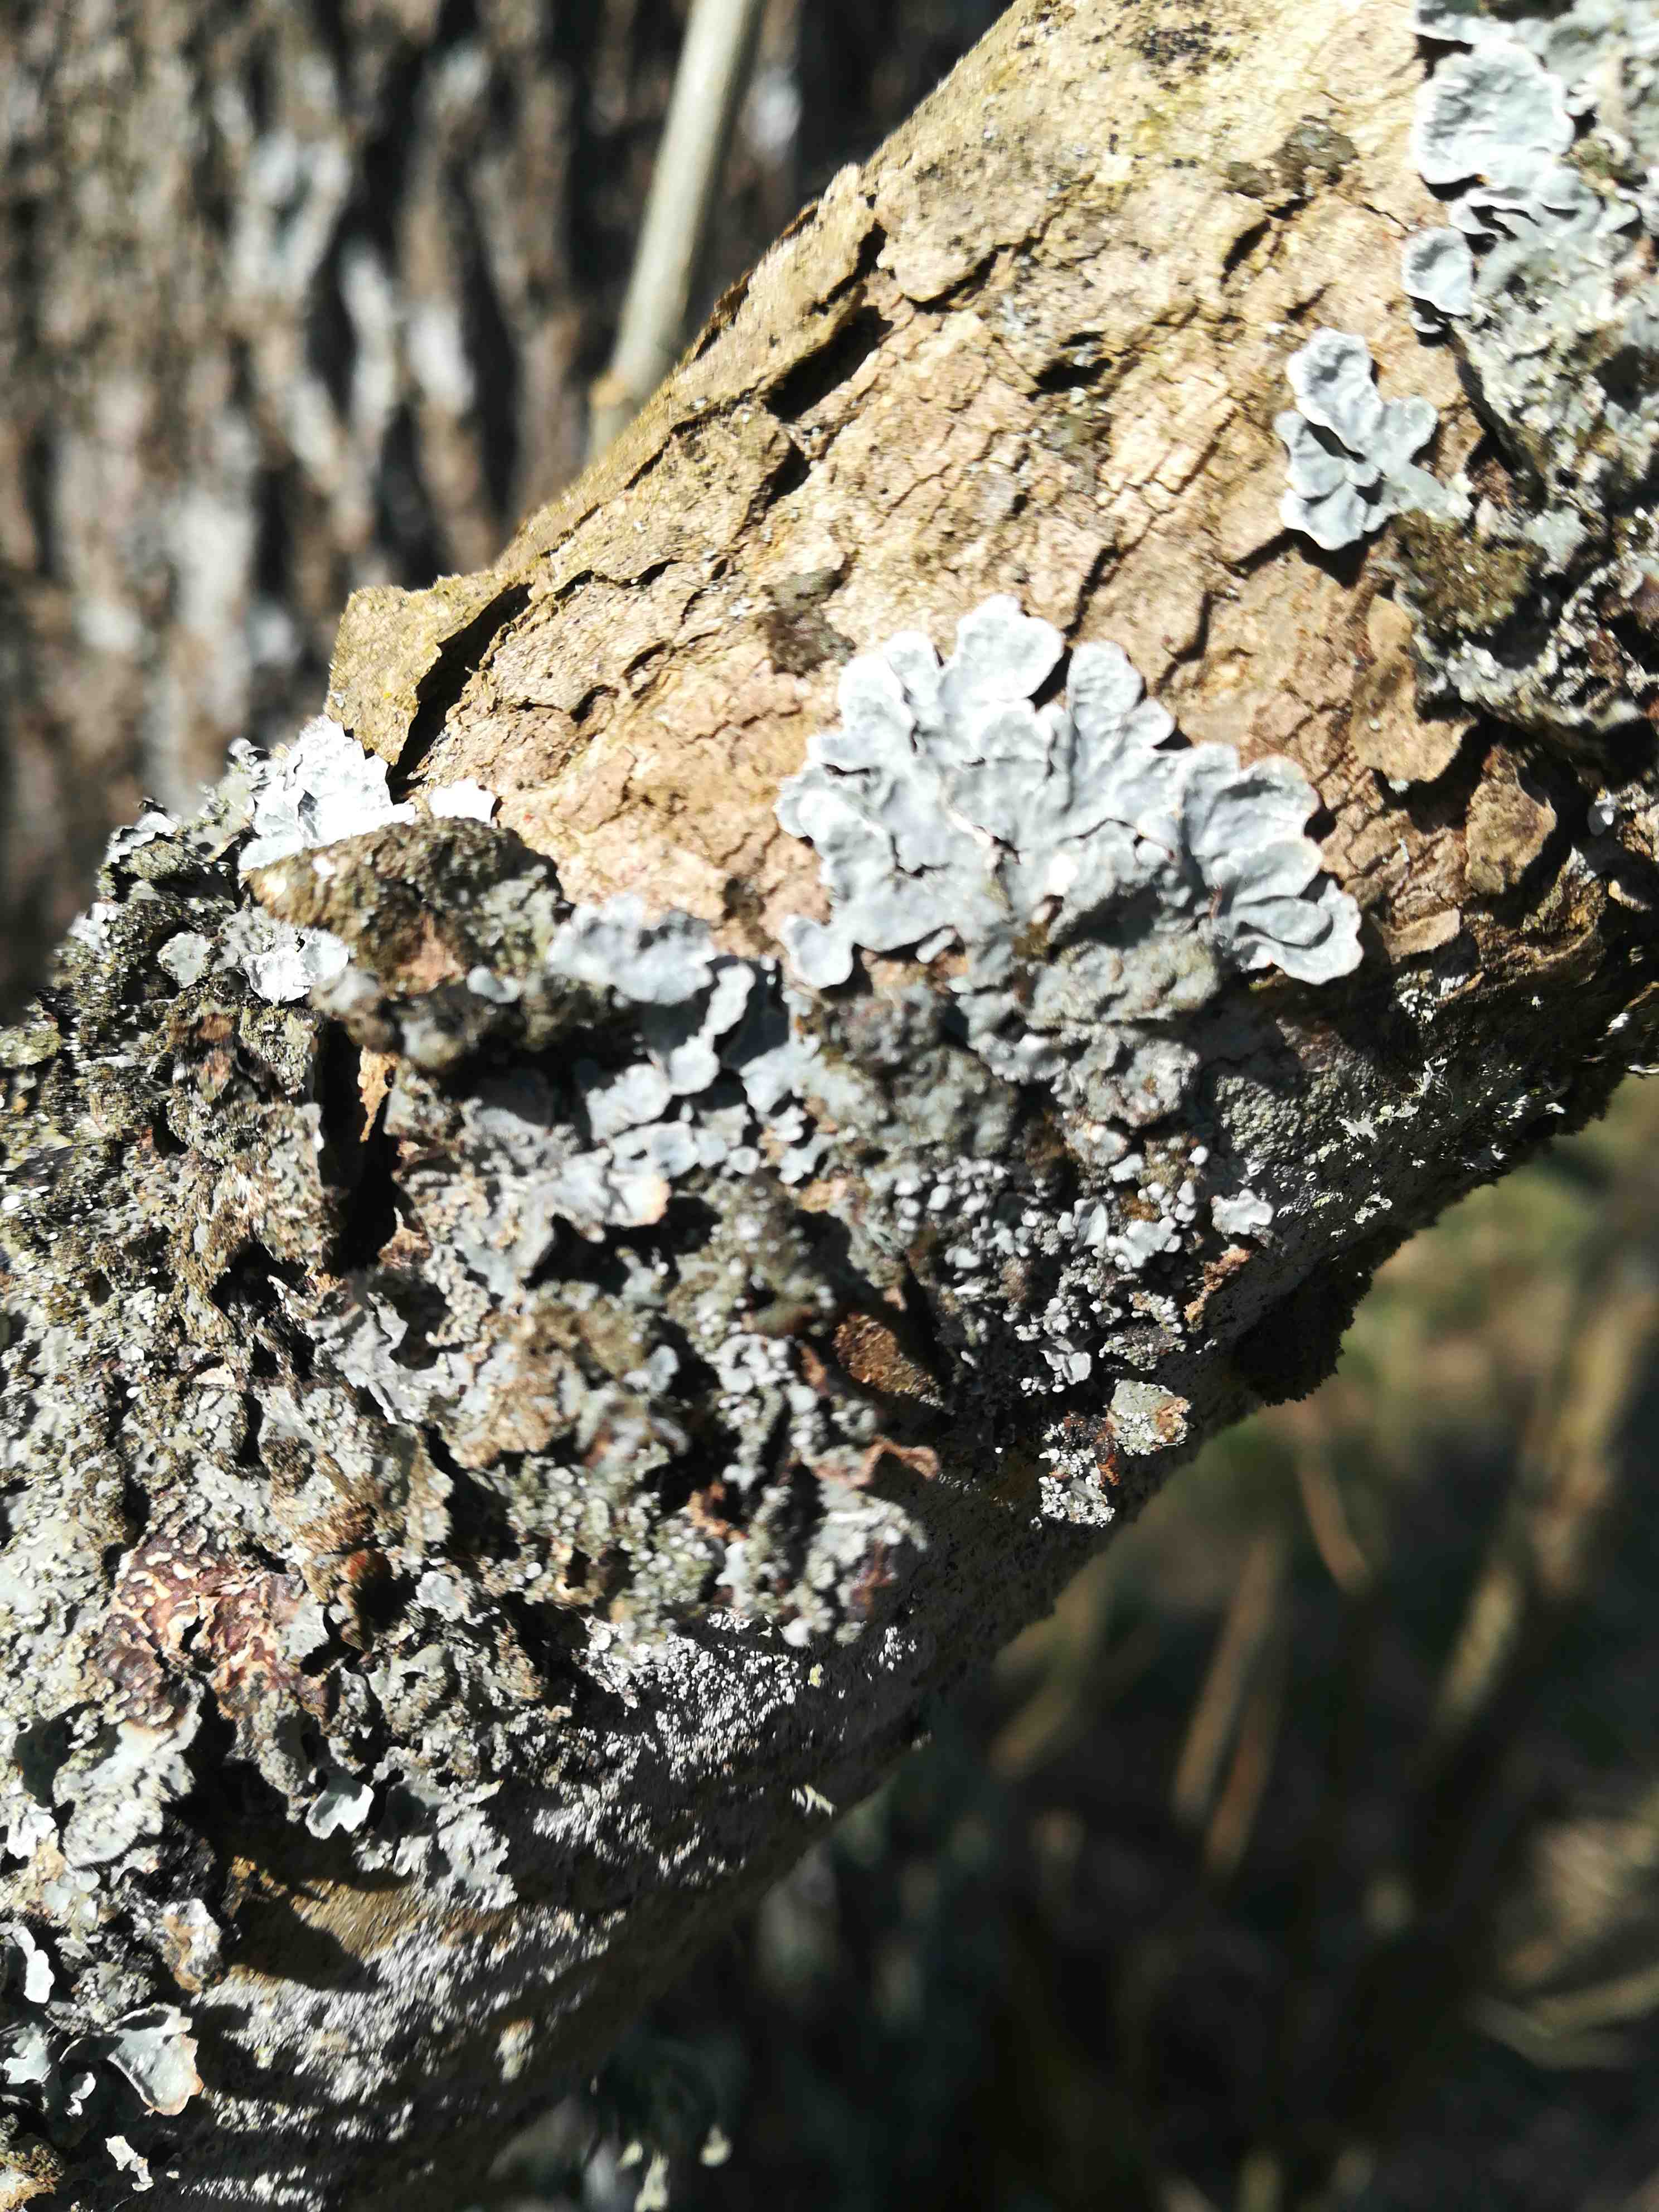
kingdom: Fungi
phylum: Ascomycota
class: Lecanoromycetes
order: Lecanorales
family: Parmeliaceae
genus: Parmelia
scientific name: Parmelia sulcata
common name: rynket skållav
